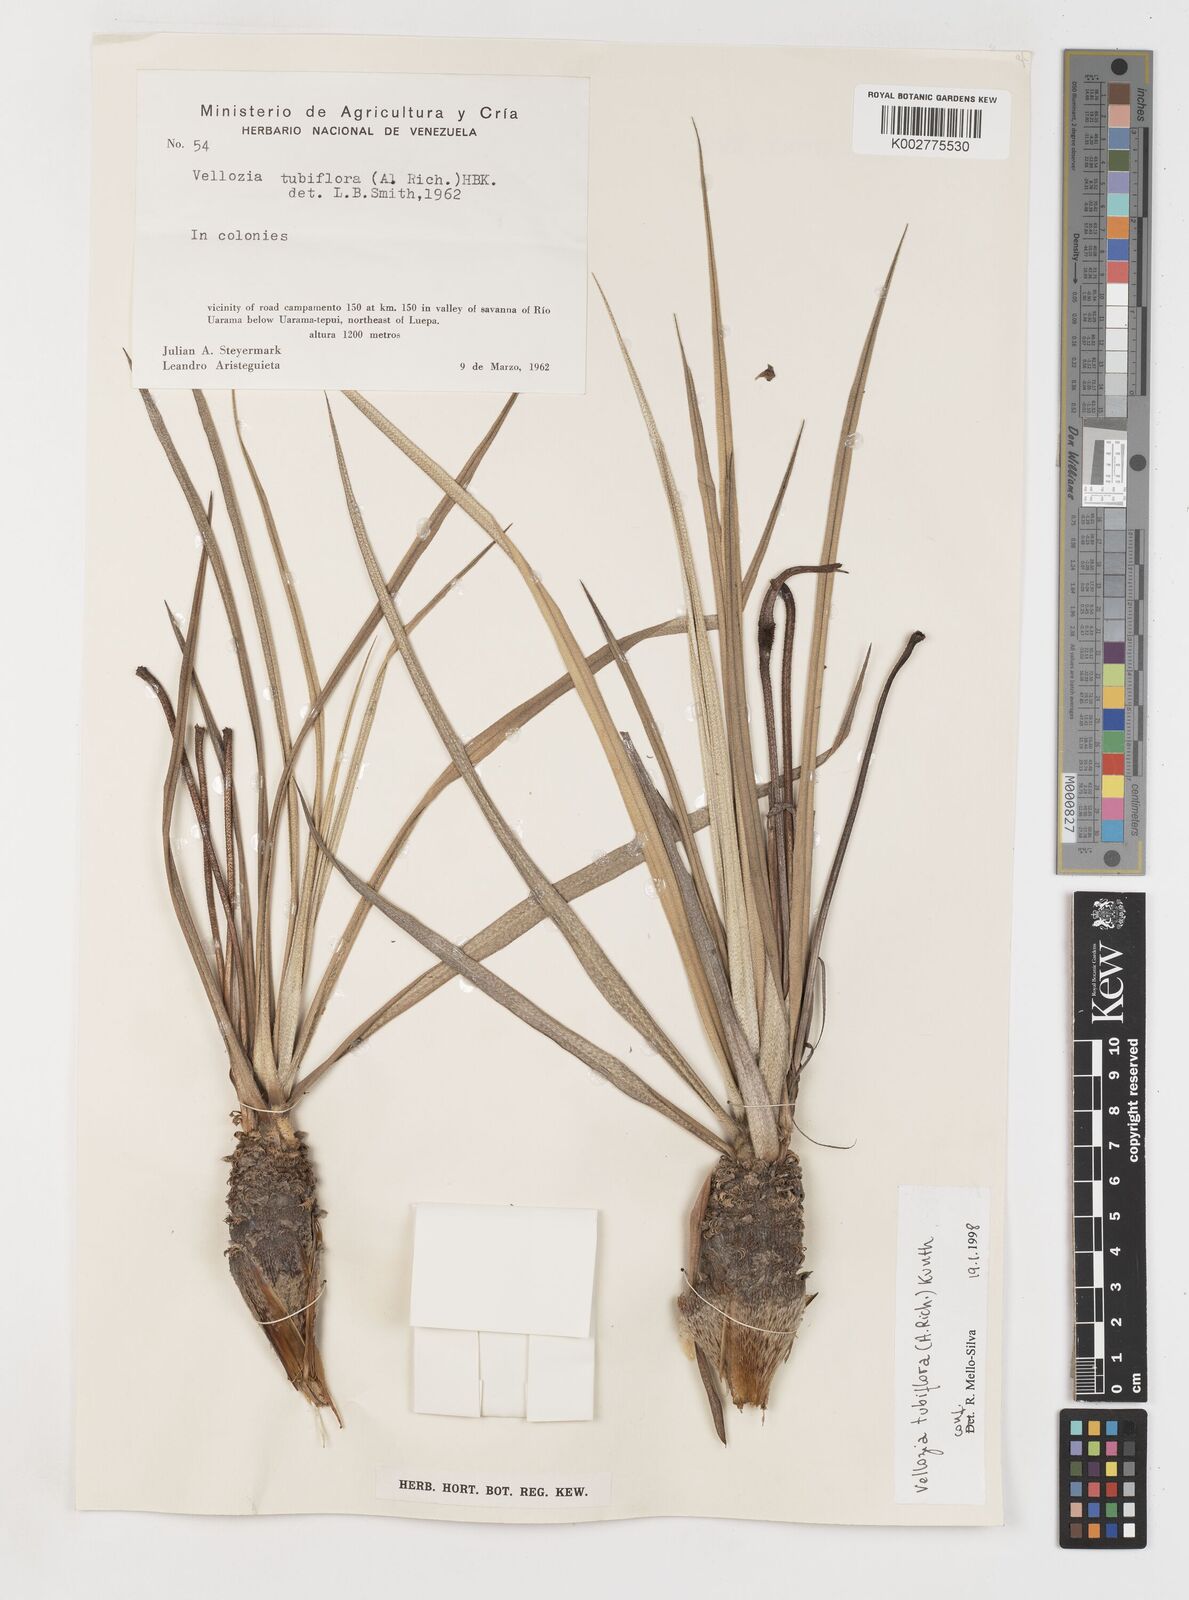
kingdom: Plantae
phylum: Tracheophyta
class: Liliopsida
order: Pandanales
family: Velloziaceae
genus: Vellozia
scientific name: Vellozia tubiflora
